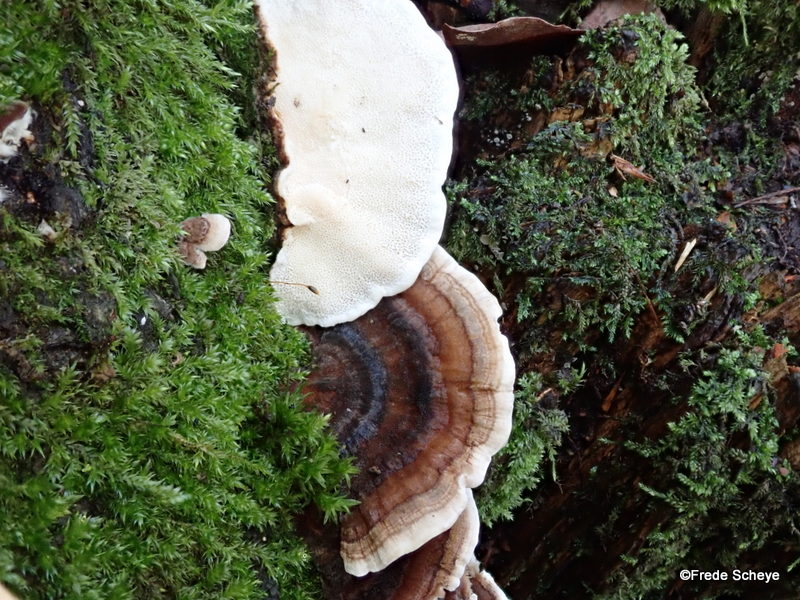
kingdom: Fungi
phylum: Basidiomycota
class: Agaricomycetes
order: Polyporales
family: Polyporaceae
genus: Trametes
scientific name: Trametes versicolor
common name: broget læderporesvamp
